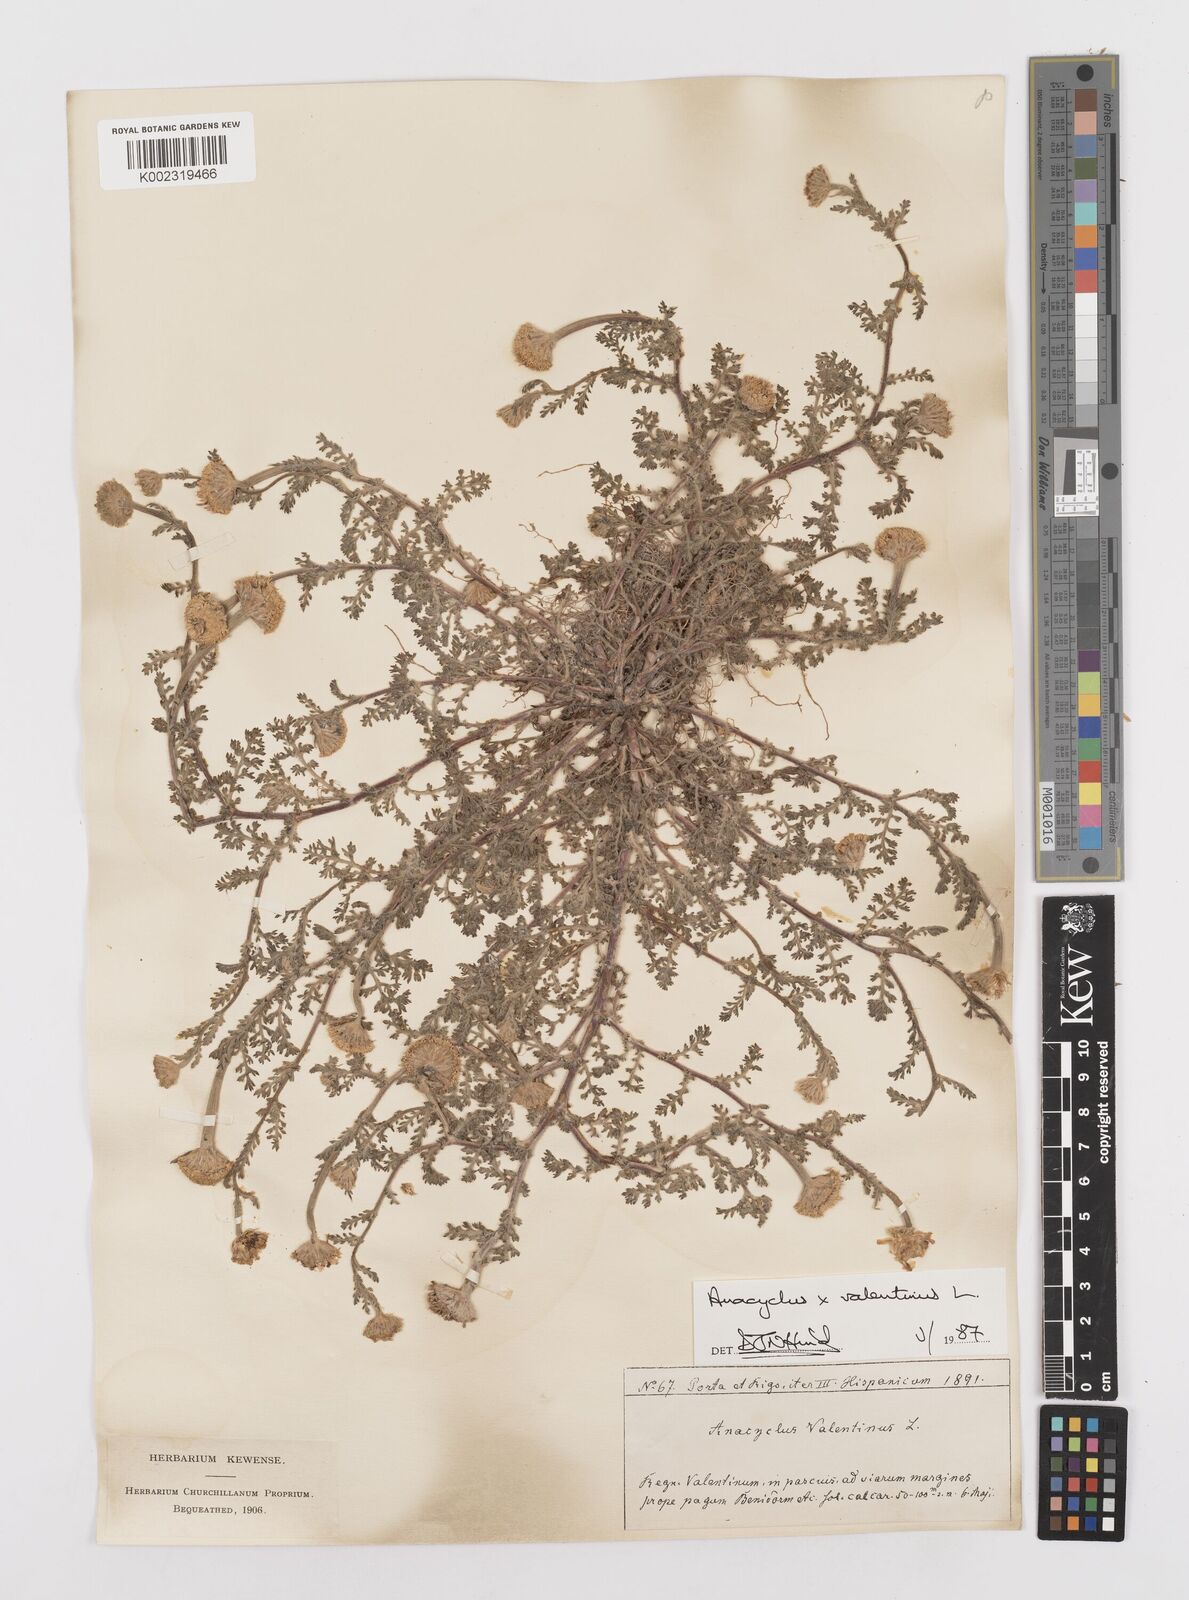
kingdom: Plantae
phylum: Tracheophyta
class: Magnoliopsida
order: Asterales
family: Asteraceae
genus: Anacyclus
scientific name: Anacyclus valentinus
